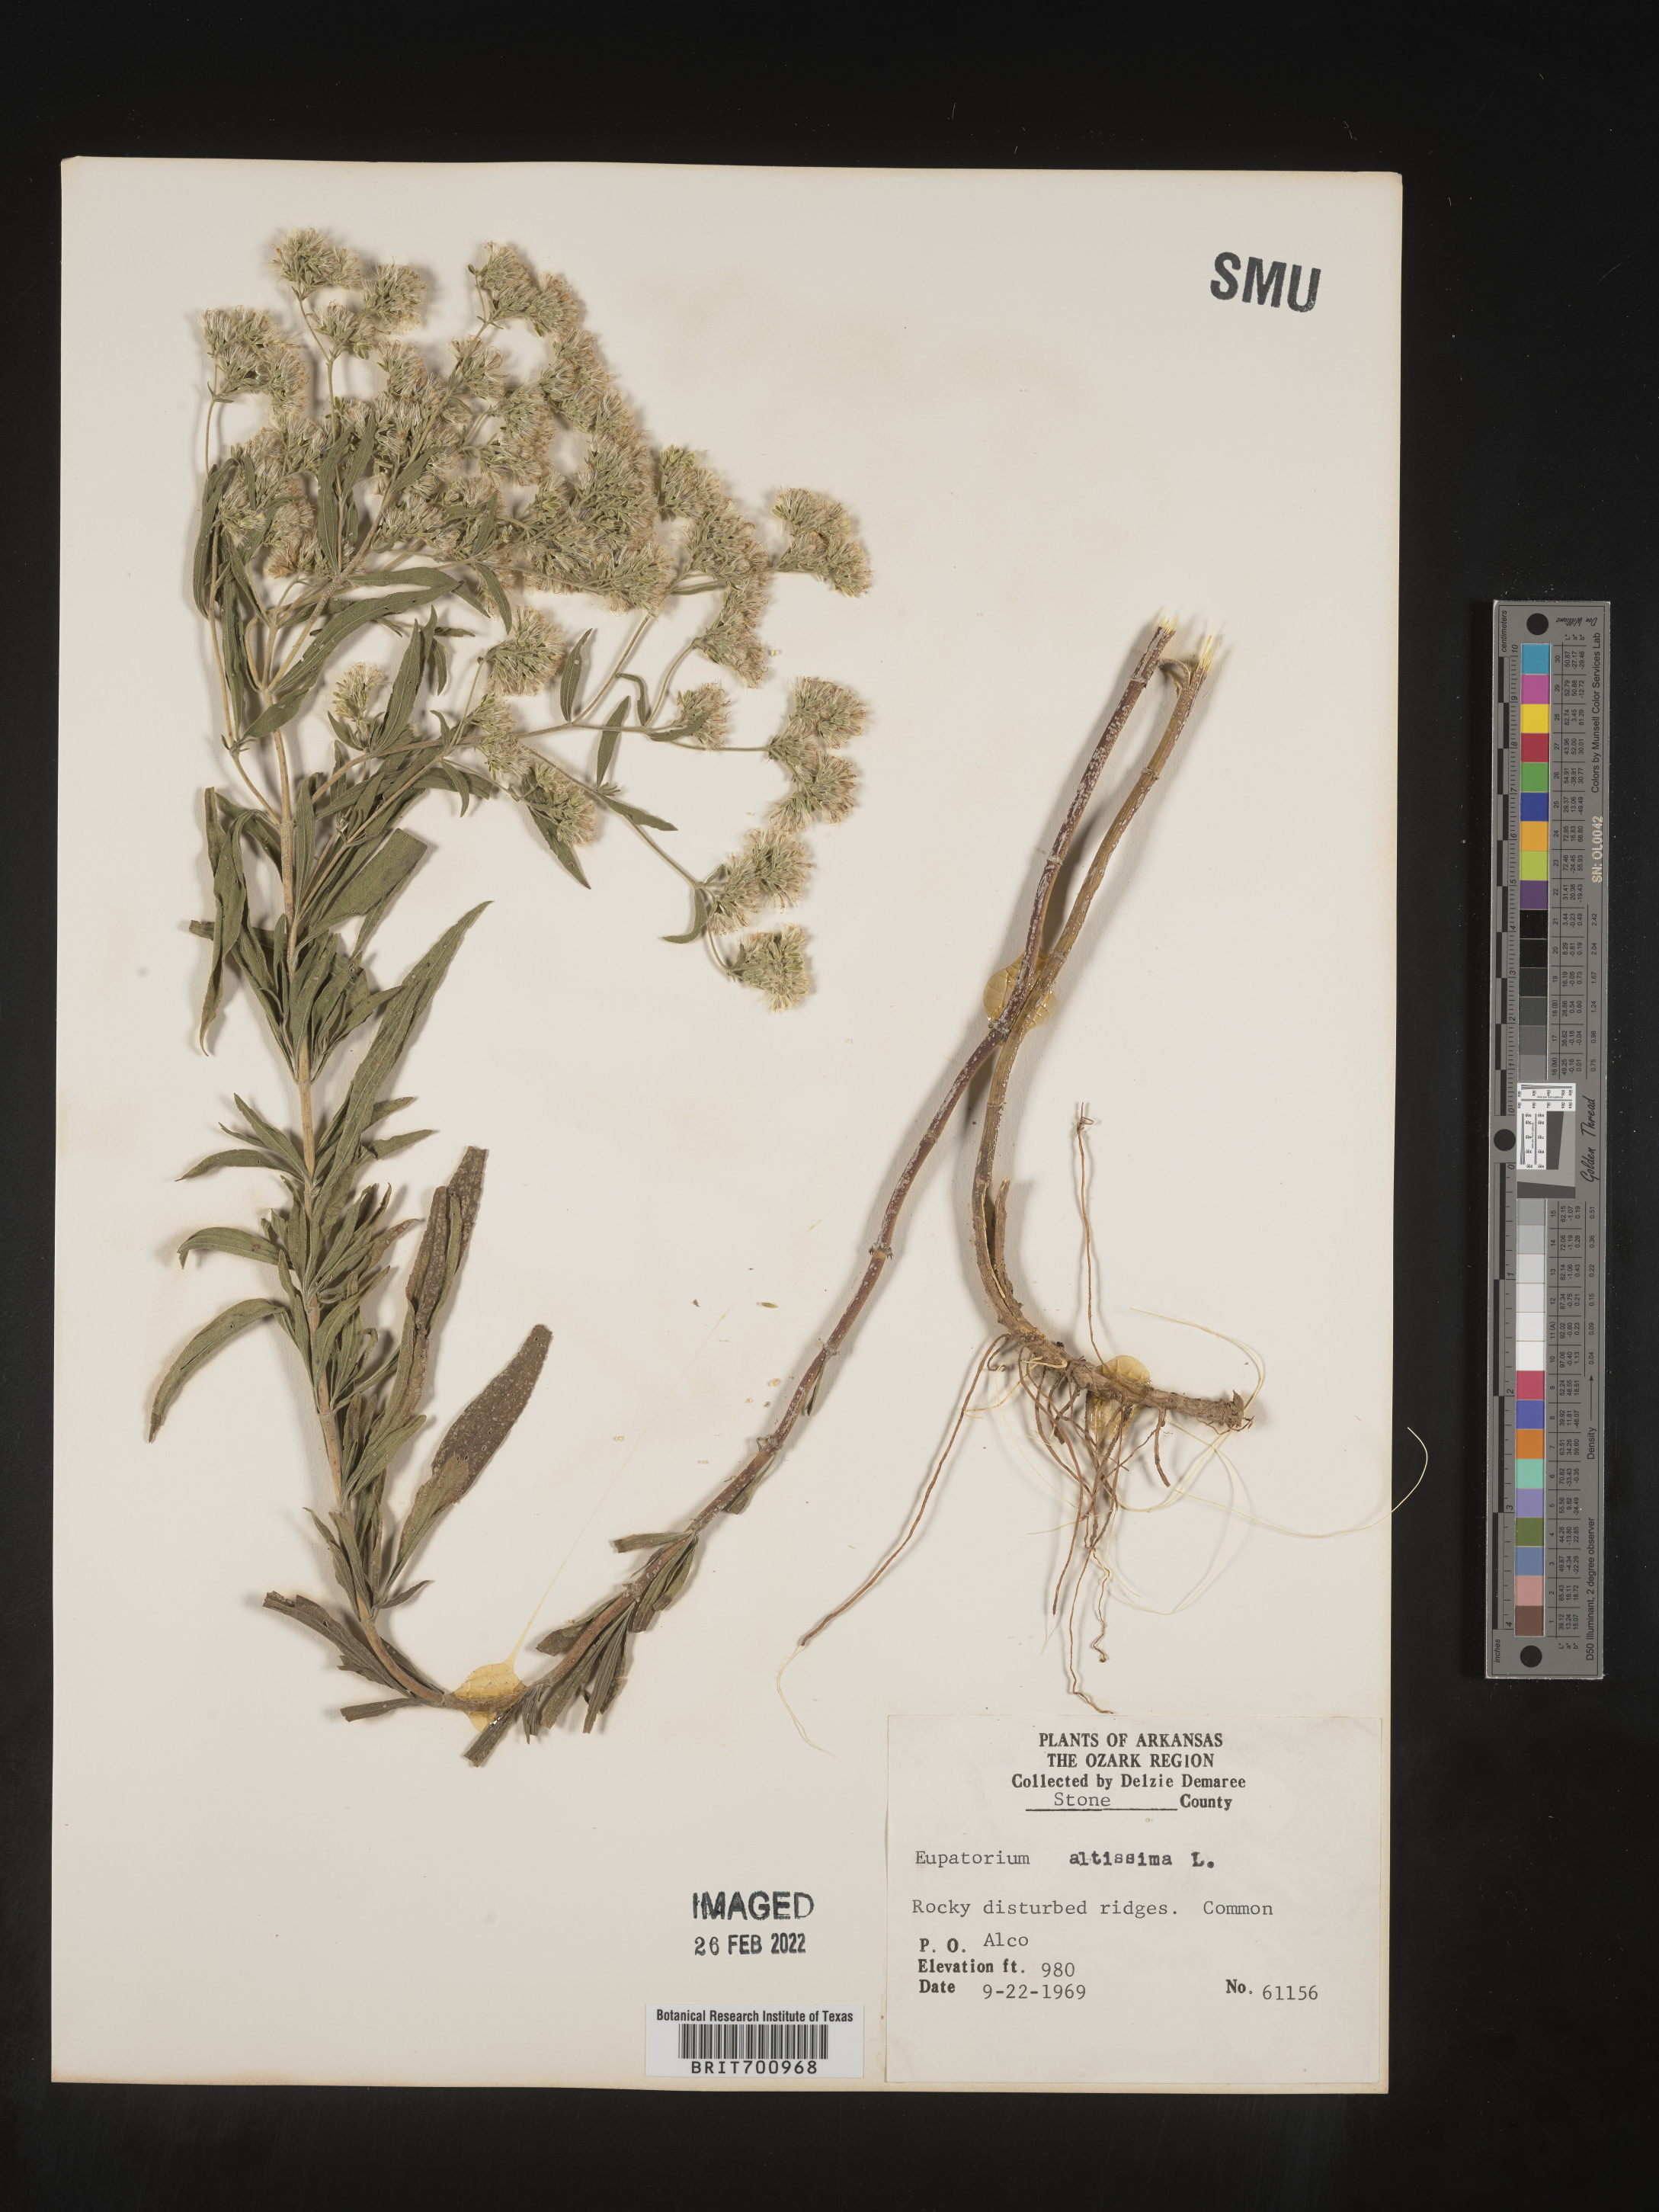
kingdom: Plantae
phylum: Tracheophyta
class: Magnoliopsida
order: Asterales
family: Asteraceae
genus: Eupatorium
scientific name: Eupatorium altissimum
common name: Tall thoroughwort
